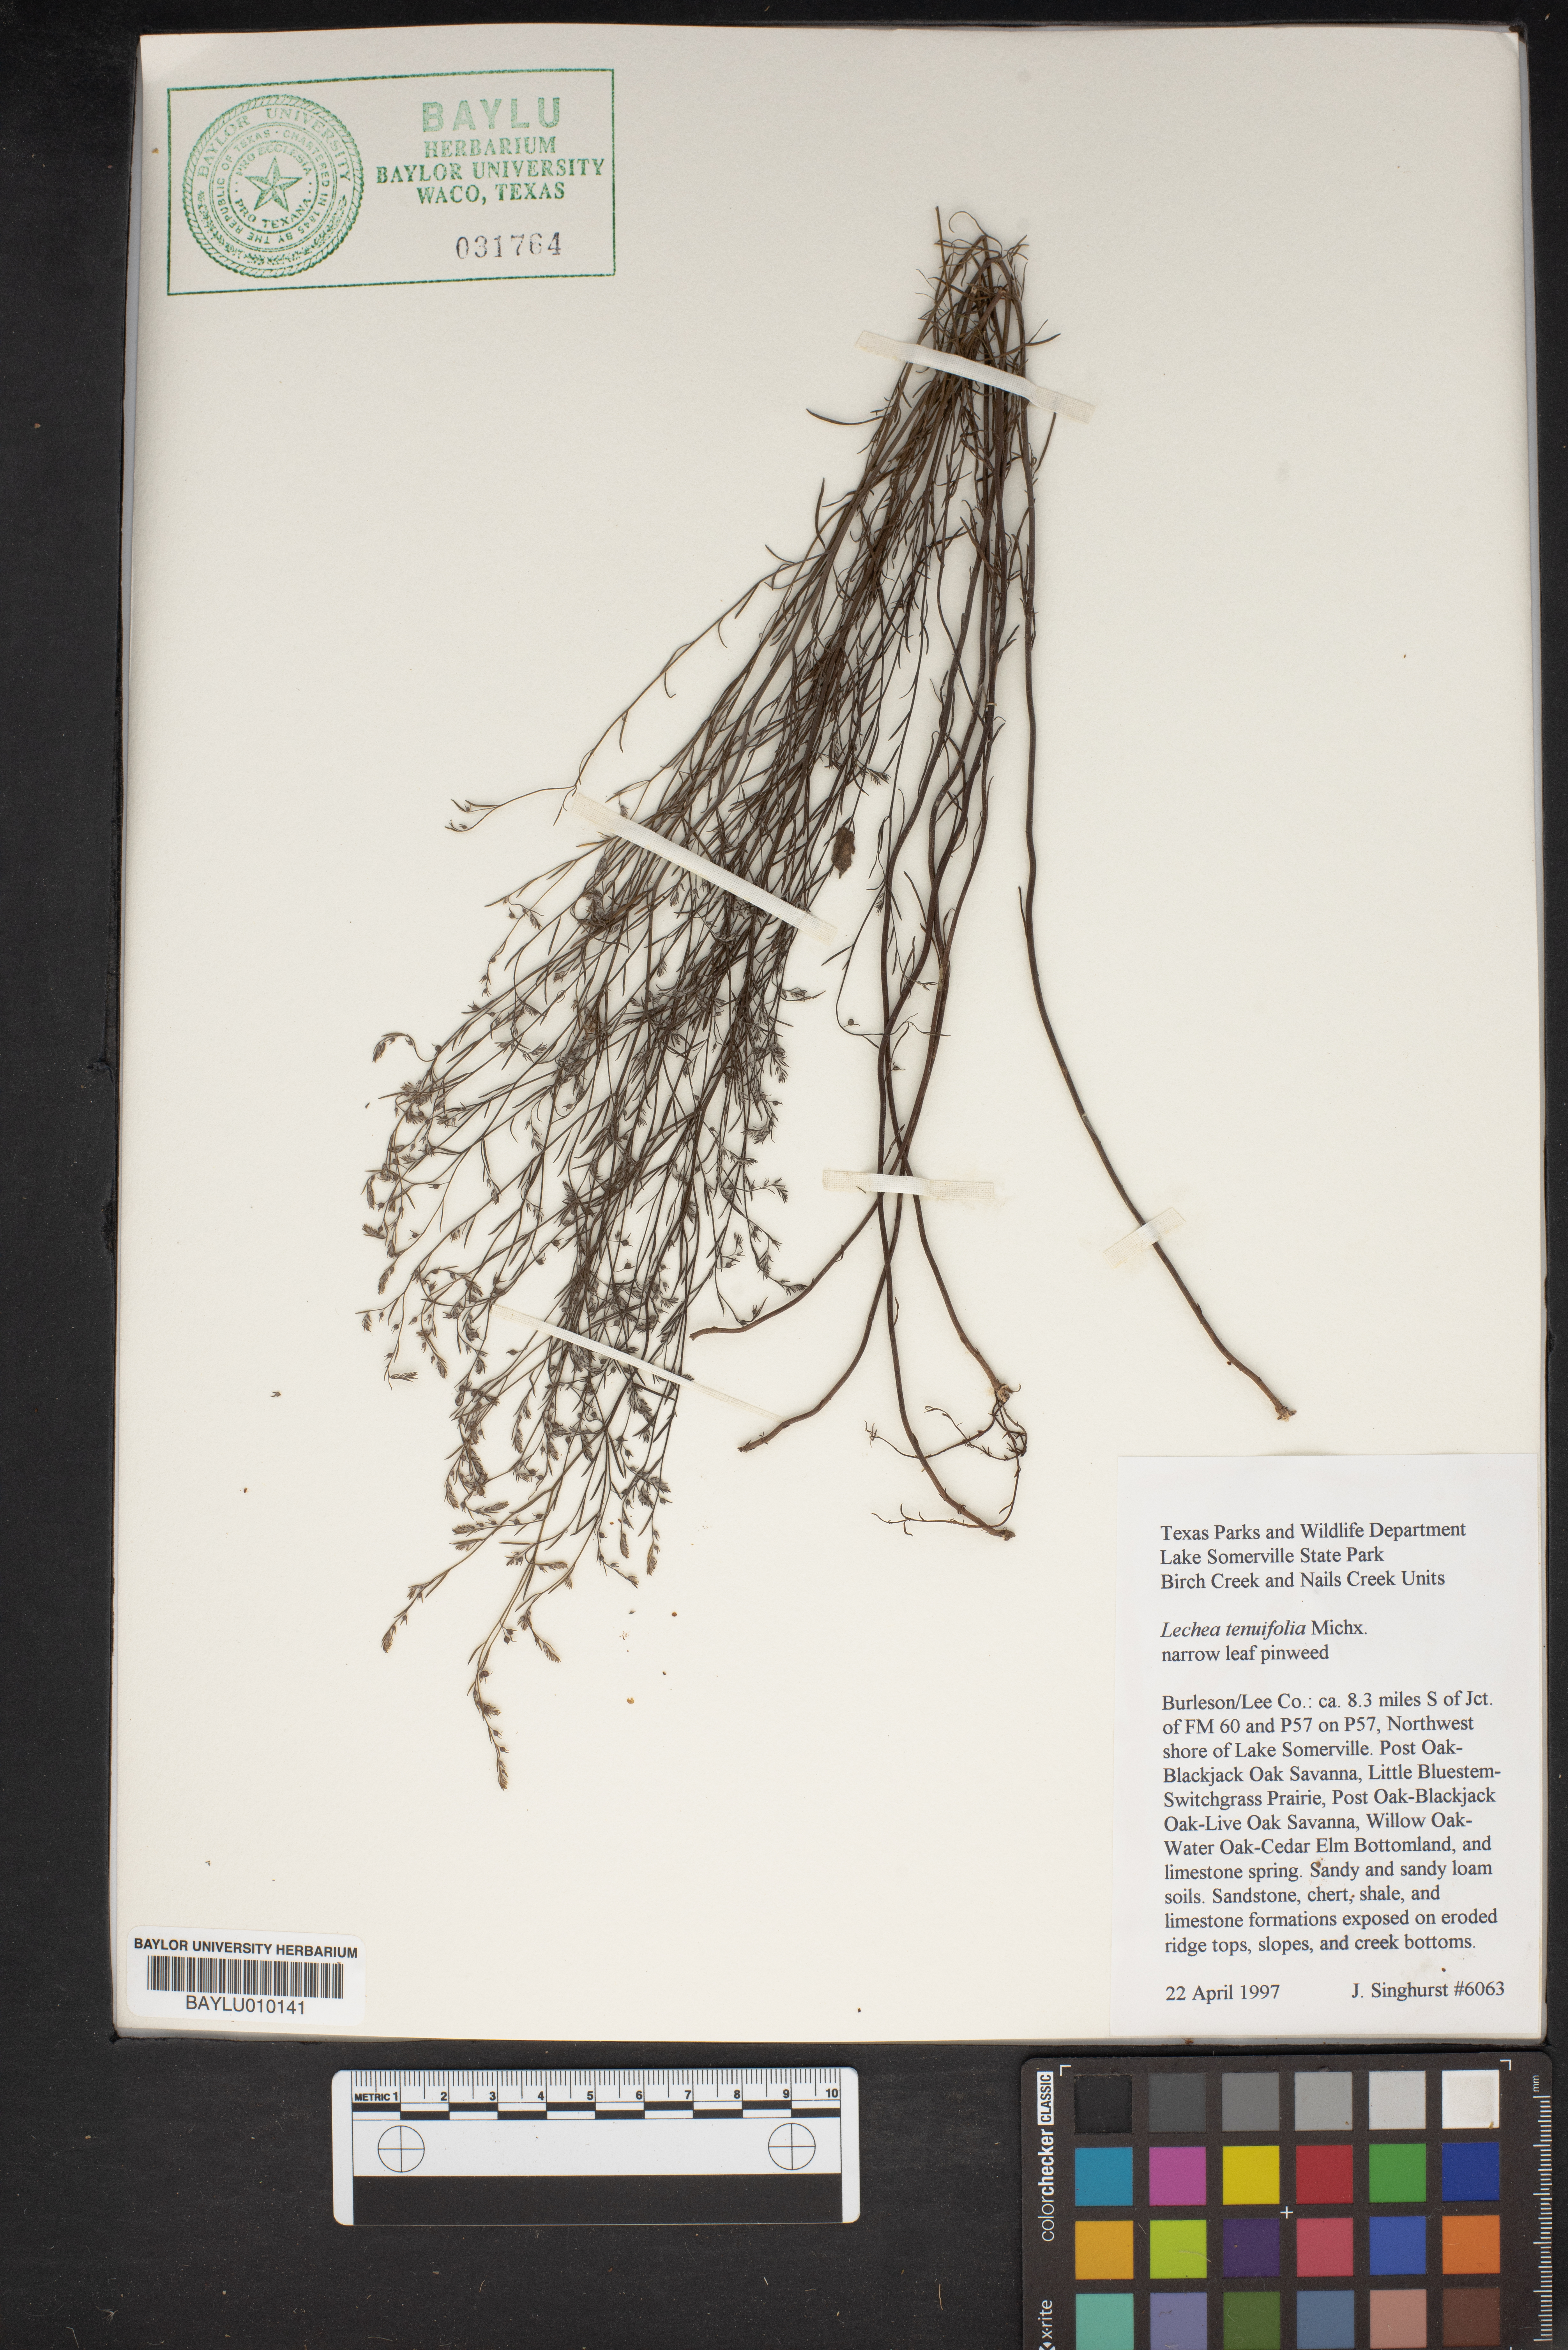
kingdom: Plantae
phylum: Tracheophyta
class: Magnoliopsida
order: Malvales
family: Cistaceae
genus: Lechea
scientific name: Lechea tenuifolia
